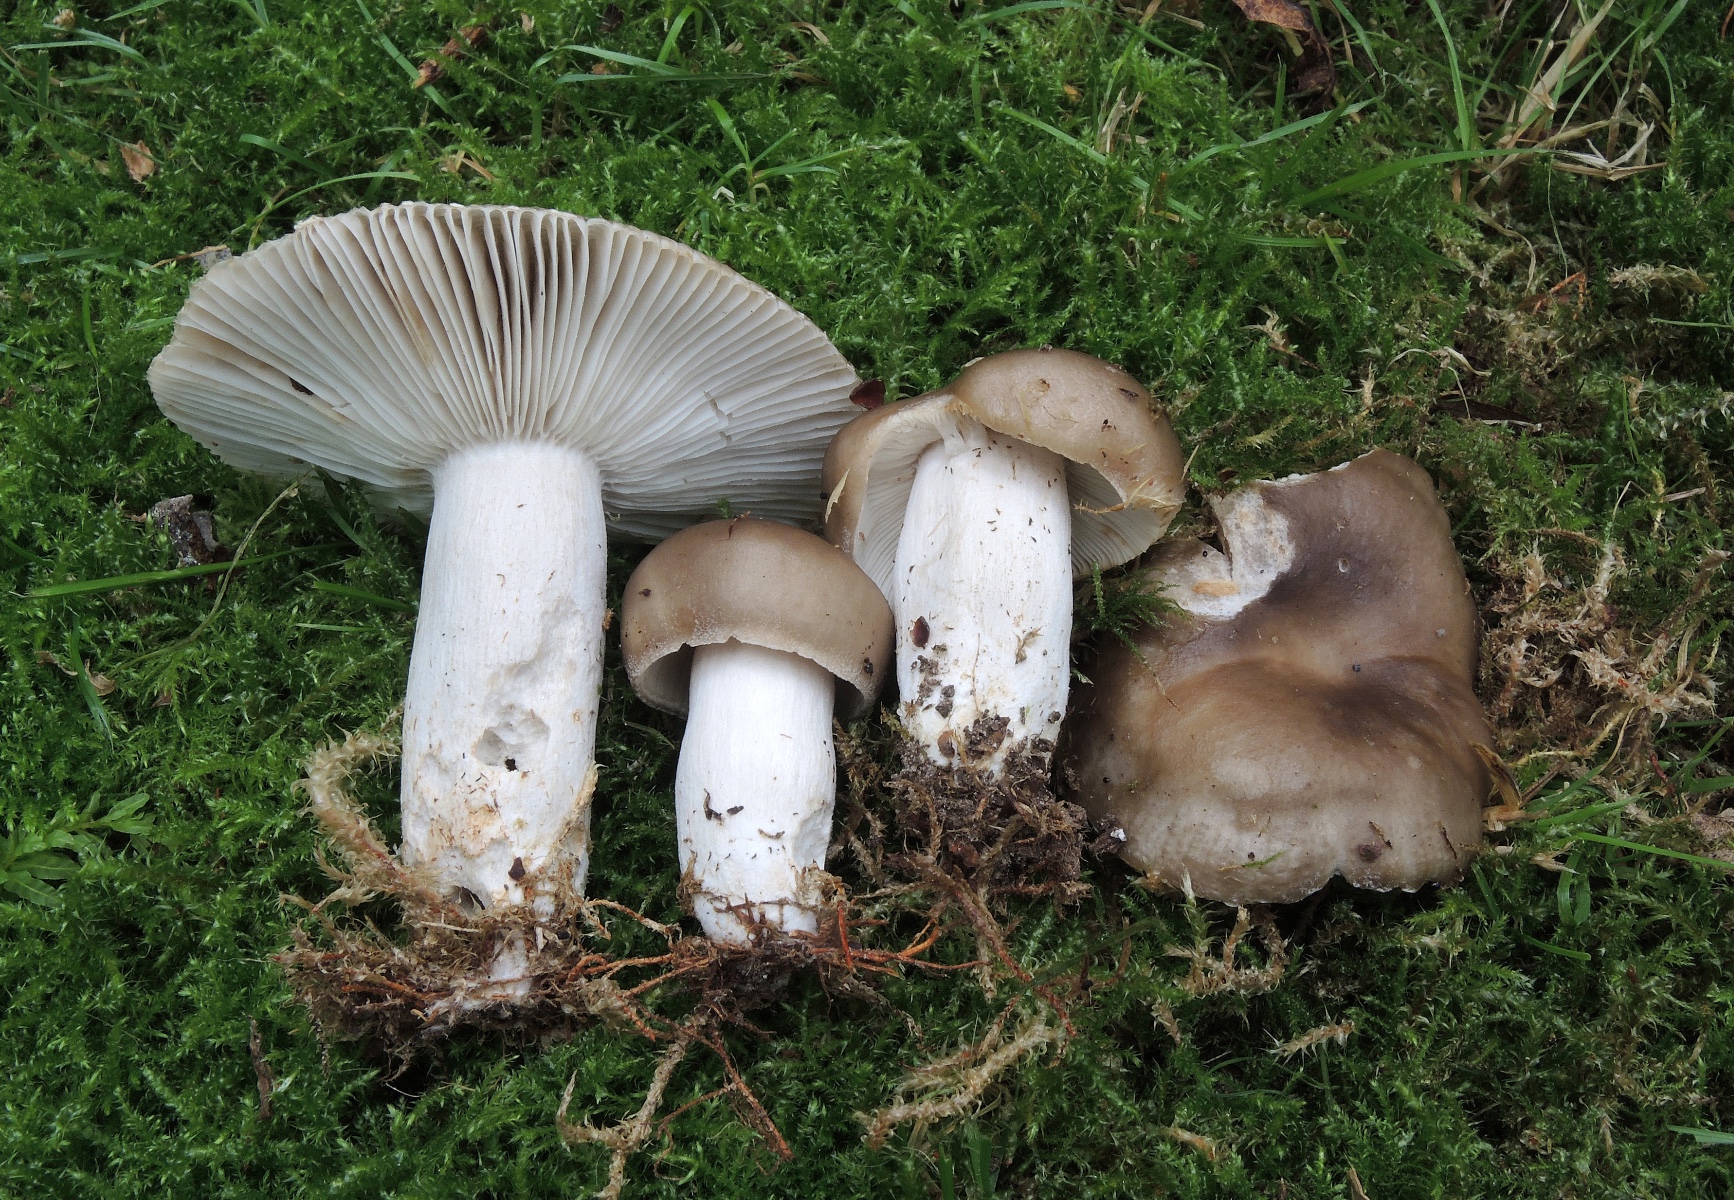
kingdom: Fungi
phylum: Basidiomycota
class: Agaricomycetes
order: Russulales
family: Russulaceae
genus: Russula
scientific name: Russula amoenolens
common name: skarp kam-skørhat
